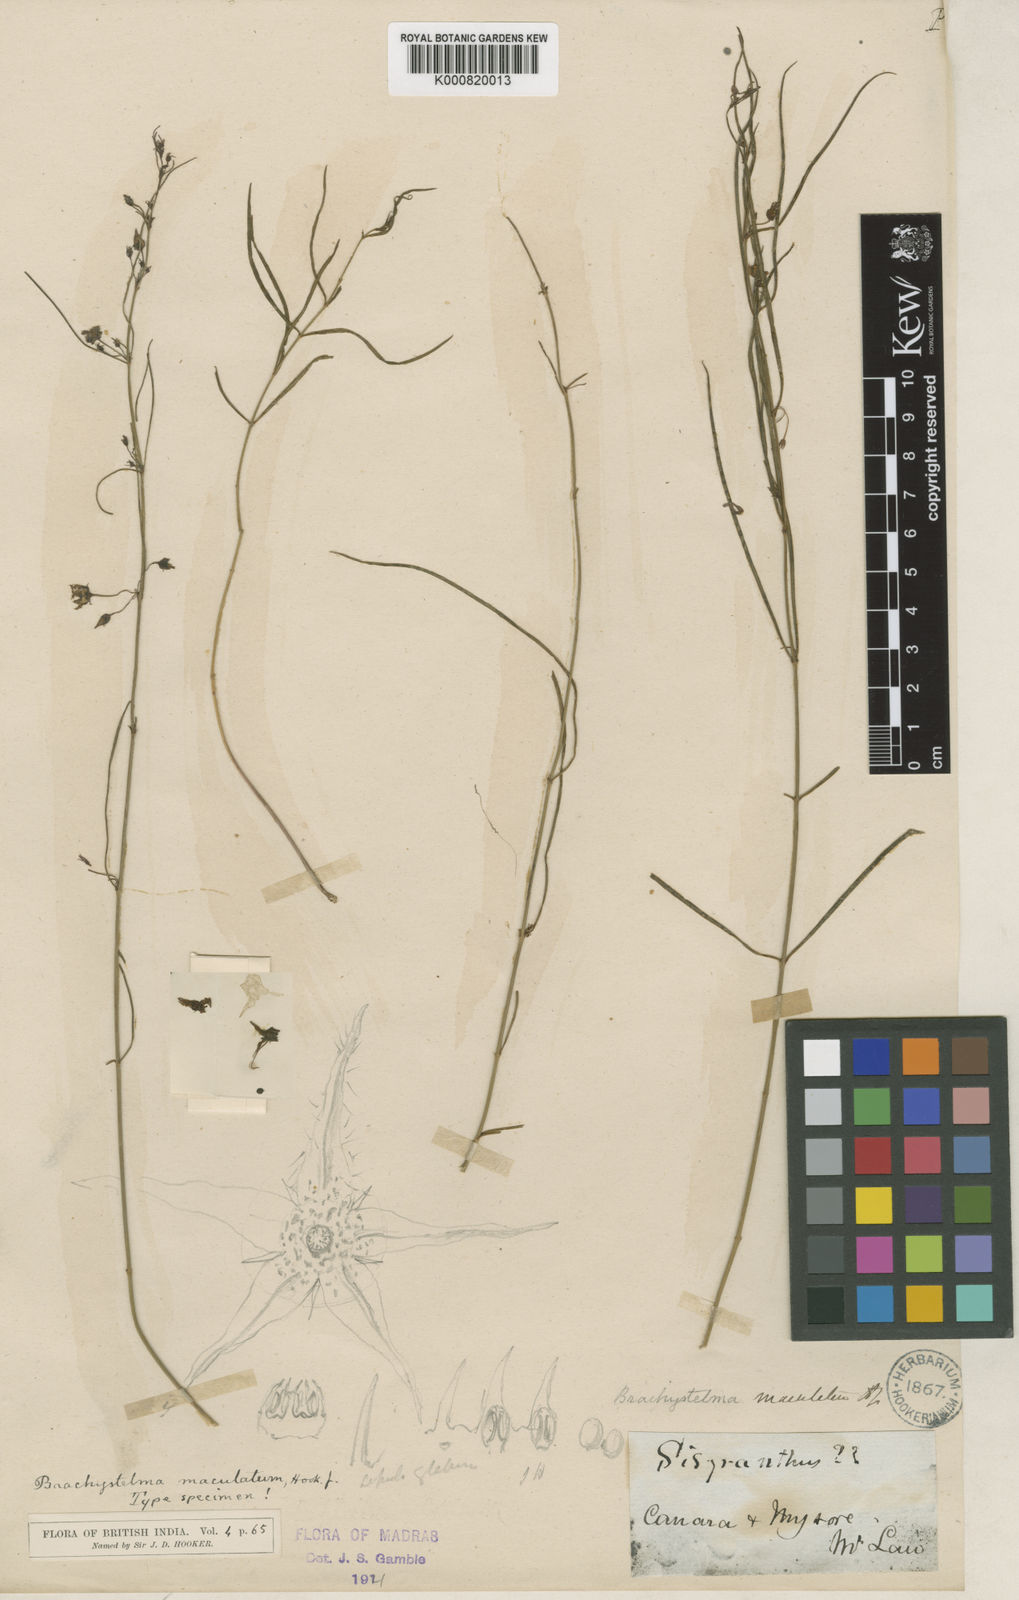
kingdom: Plantae
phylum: Tracheophyta
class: Magnoliopsida
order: Gentianales
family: Apocynaceae
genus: Ceropegia
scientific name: Ceropegia bourneae
